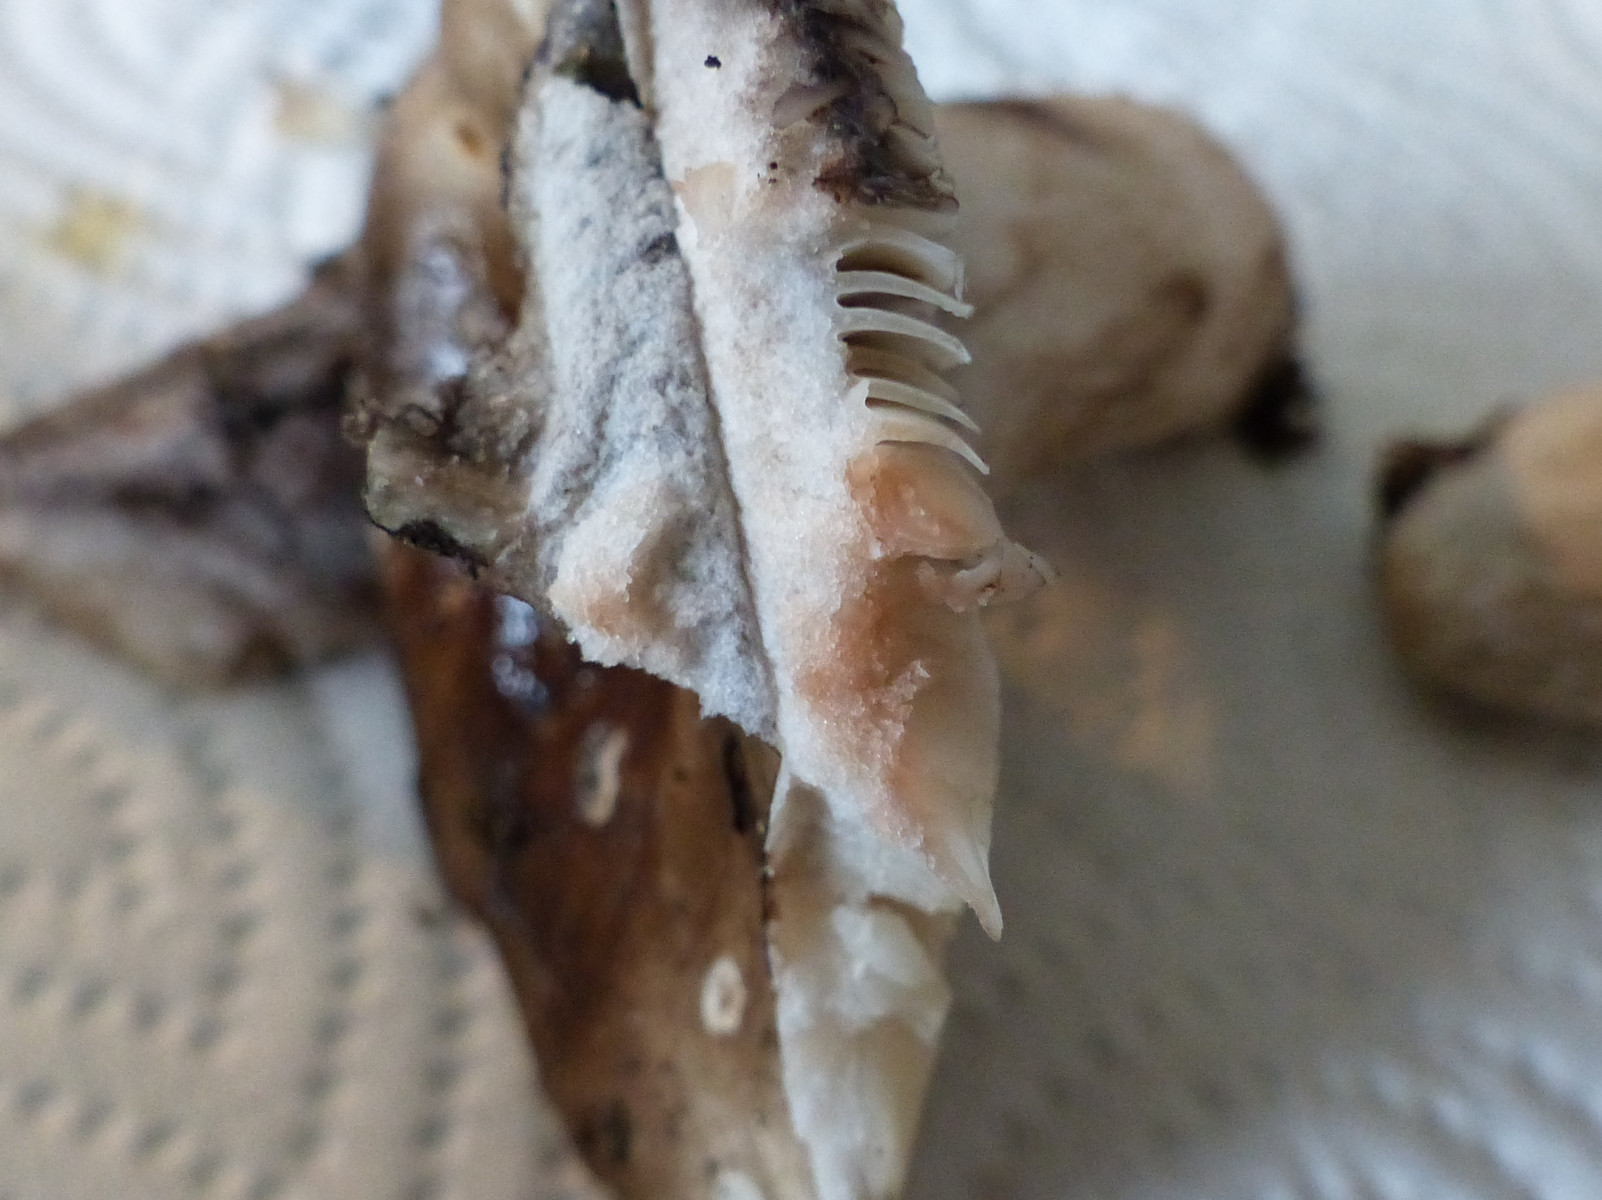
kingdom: Fungi
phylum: Basidiomycota
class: Agaricomycetes
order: Russulales
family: Russulaceae
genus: Russula
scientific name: Russula densifolia
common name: tætbladet skørhat
